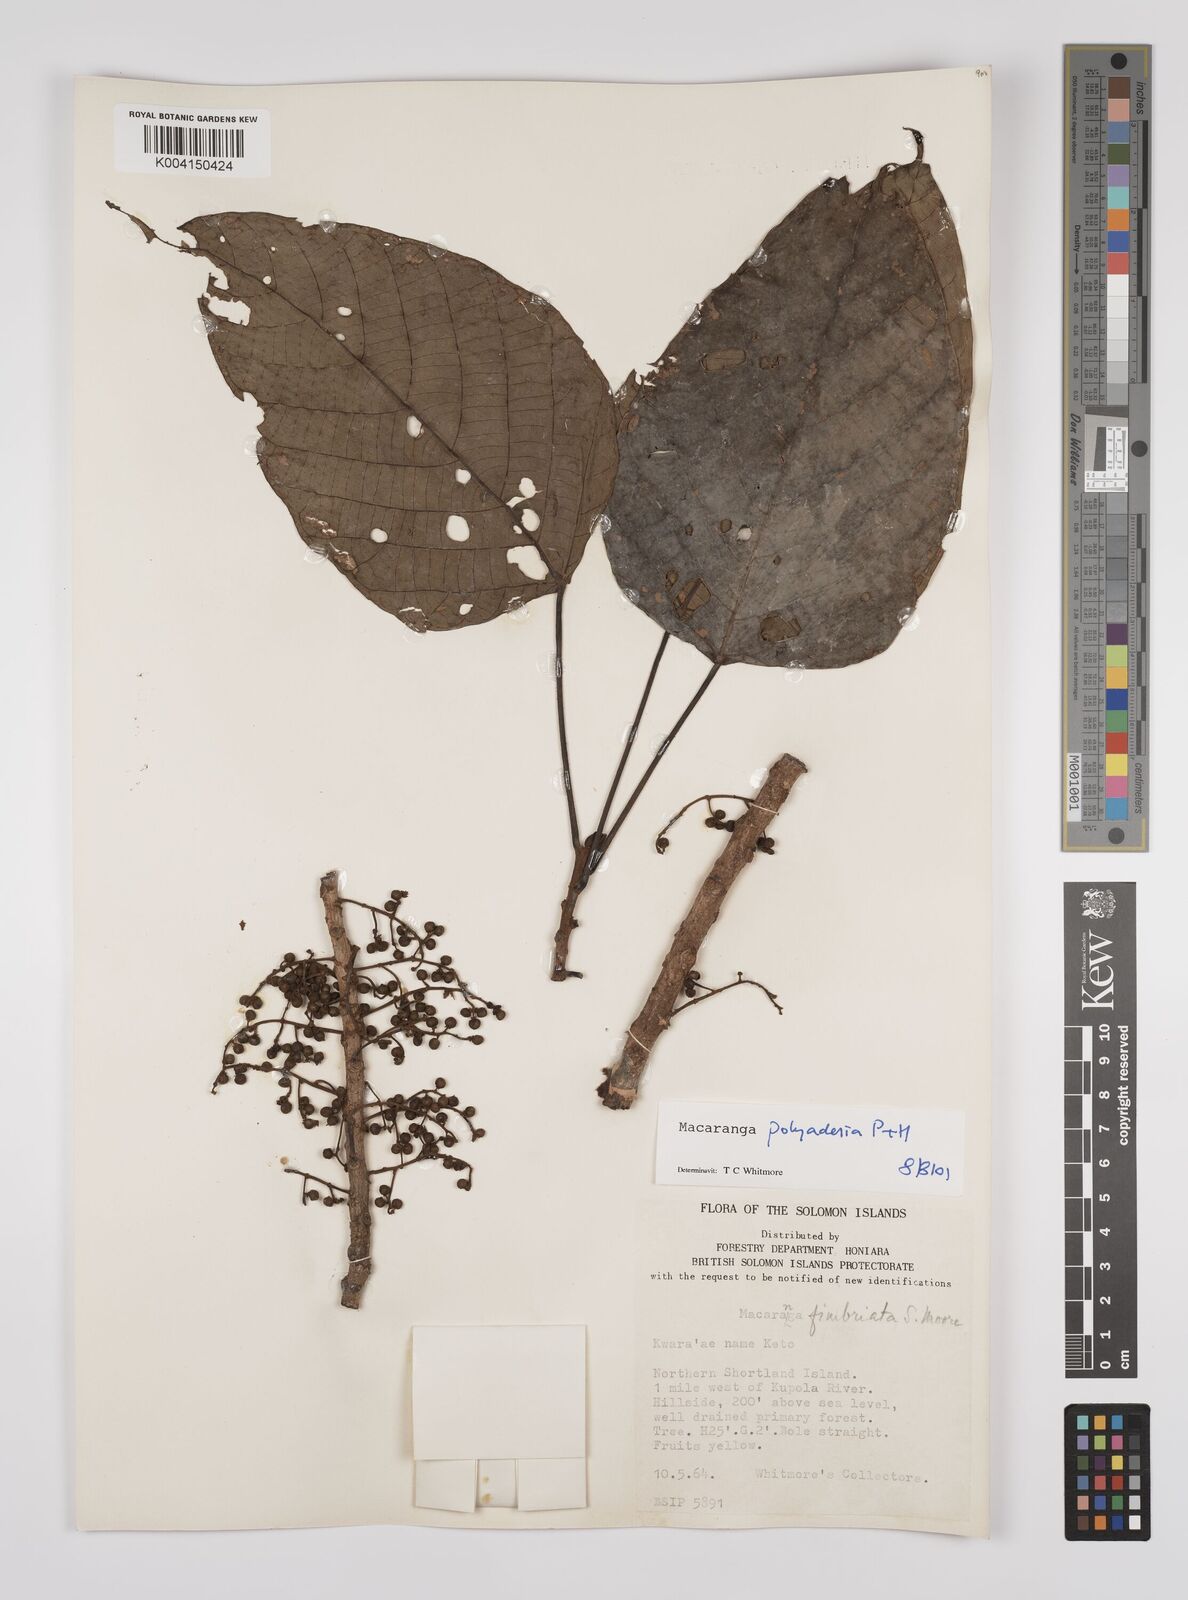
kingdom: Plantae
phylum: Tracheophyta
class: Magnoliopsida
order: Malpighiales
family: Euphorbiaceae
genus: Macaranga
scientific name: Macaranga polyadenia
